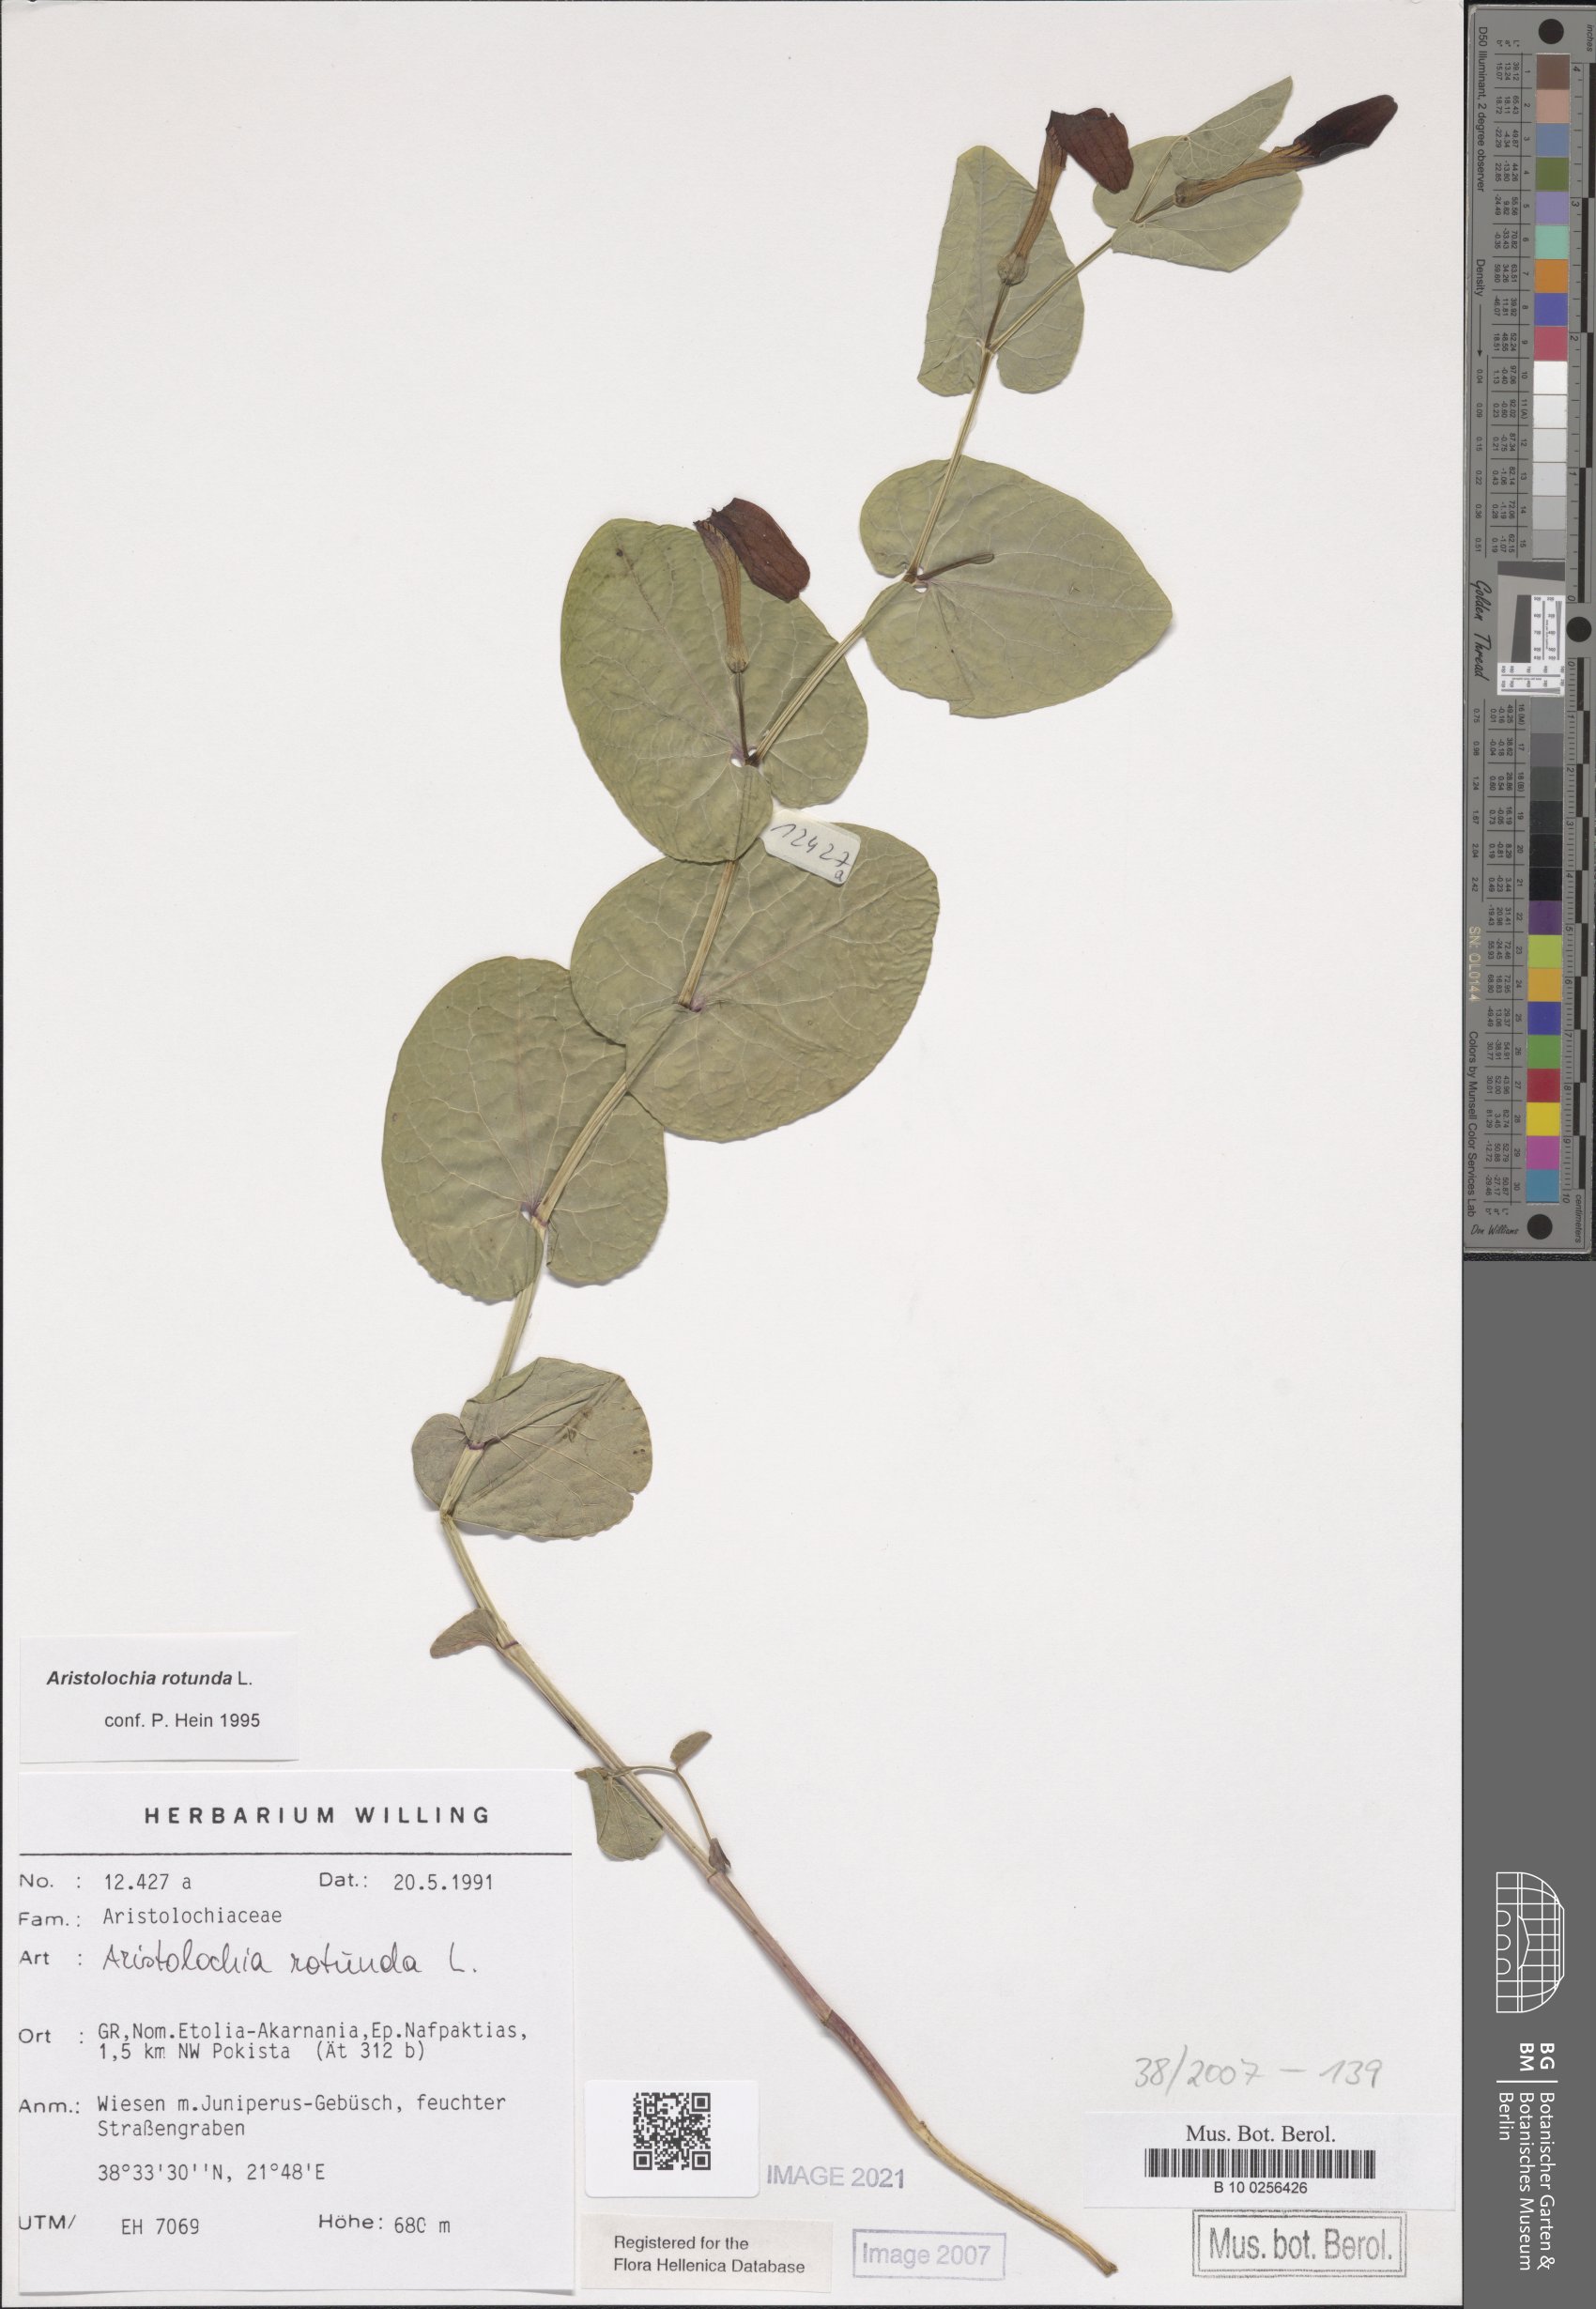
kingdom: Plantae
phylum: Tracheophyta
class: Magnoliopsida
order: Piperales
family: Aristolochiaceae
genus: Aristolochia
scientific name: Aristolochia rotunda
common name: Smearwort
